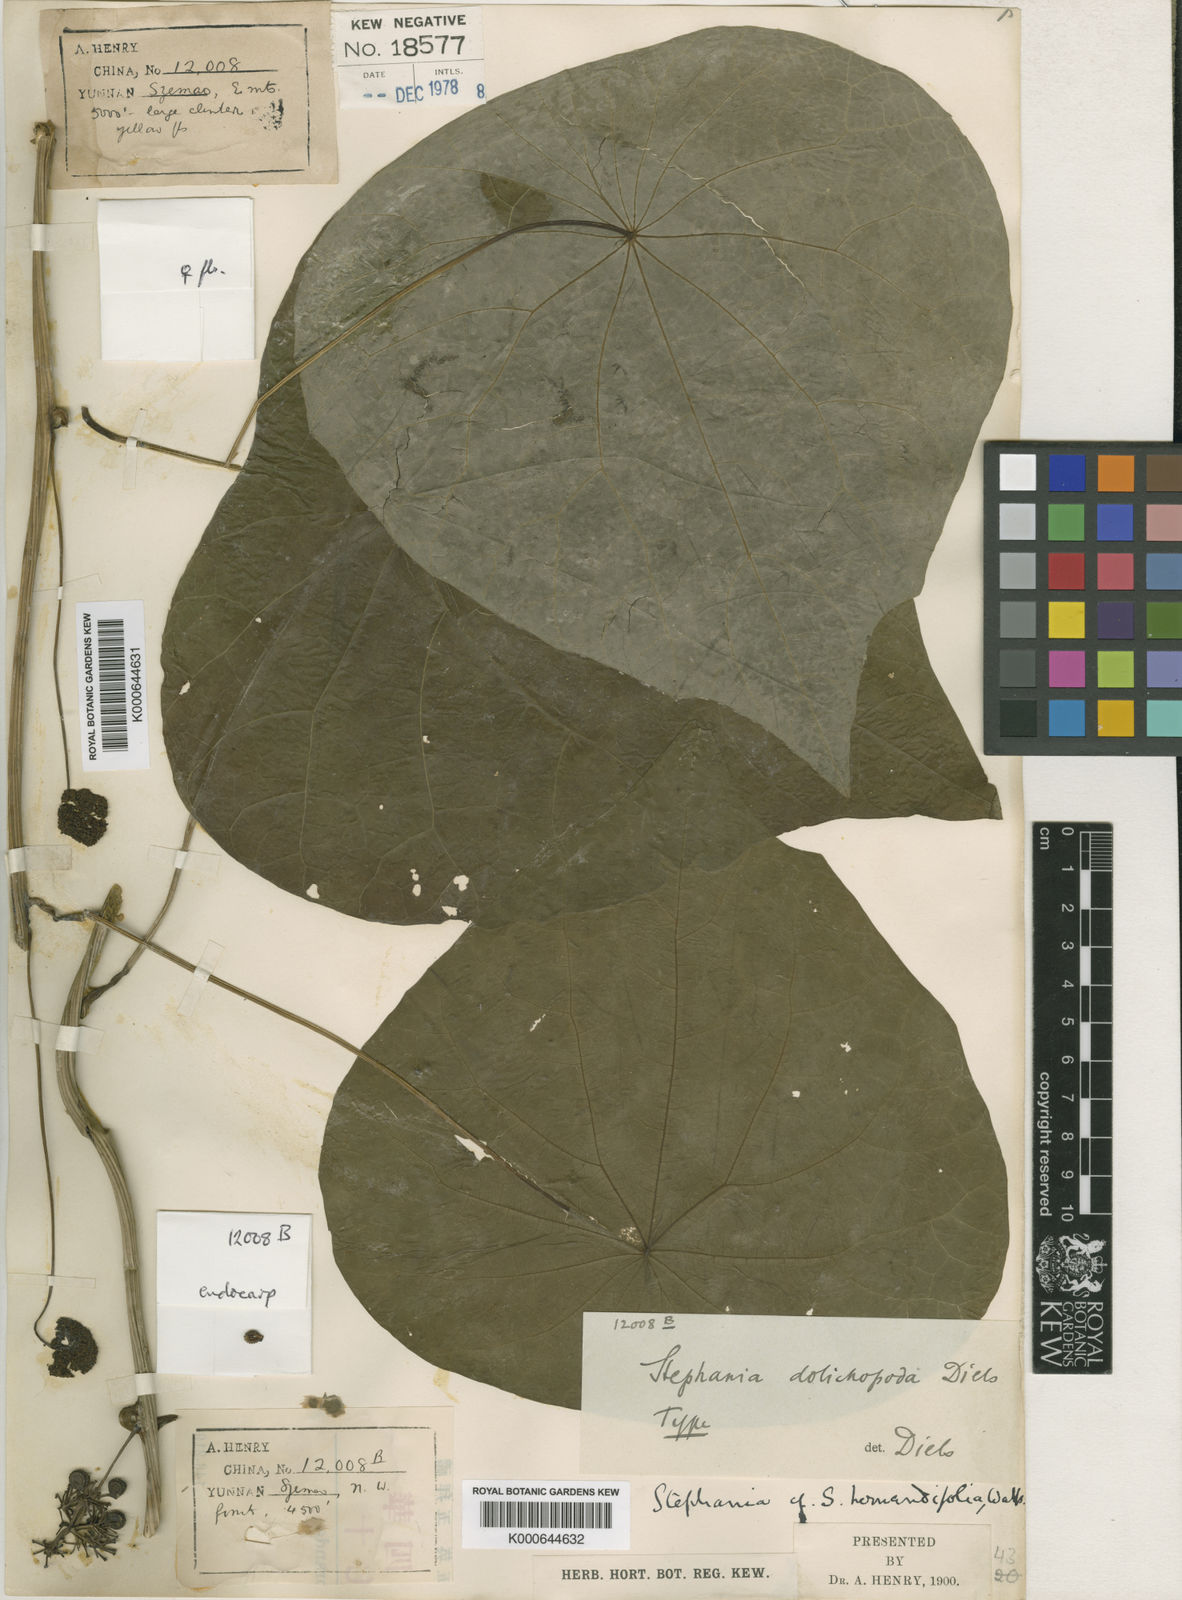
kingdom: Plantae
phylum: Tracheophyta
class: Magnoliopsida
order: Ranunculales
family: Menispermaceae
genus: Stephania
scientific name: Stephania dolichopoda
